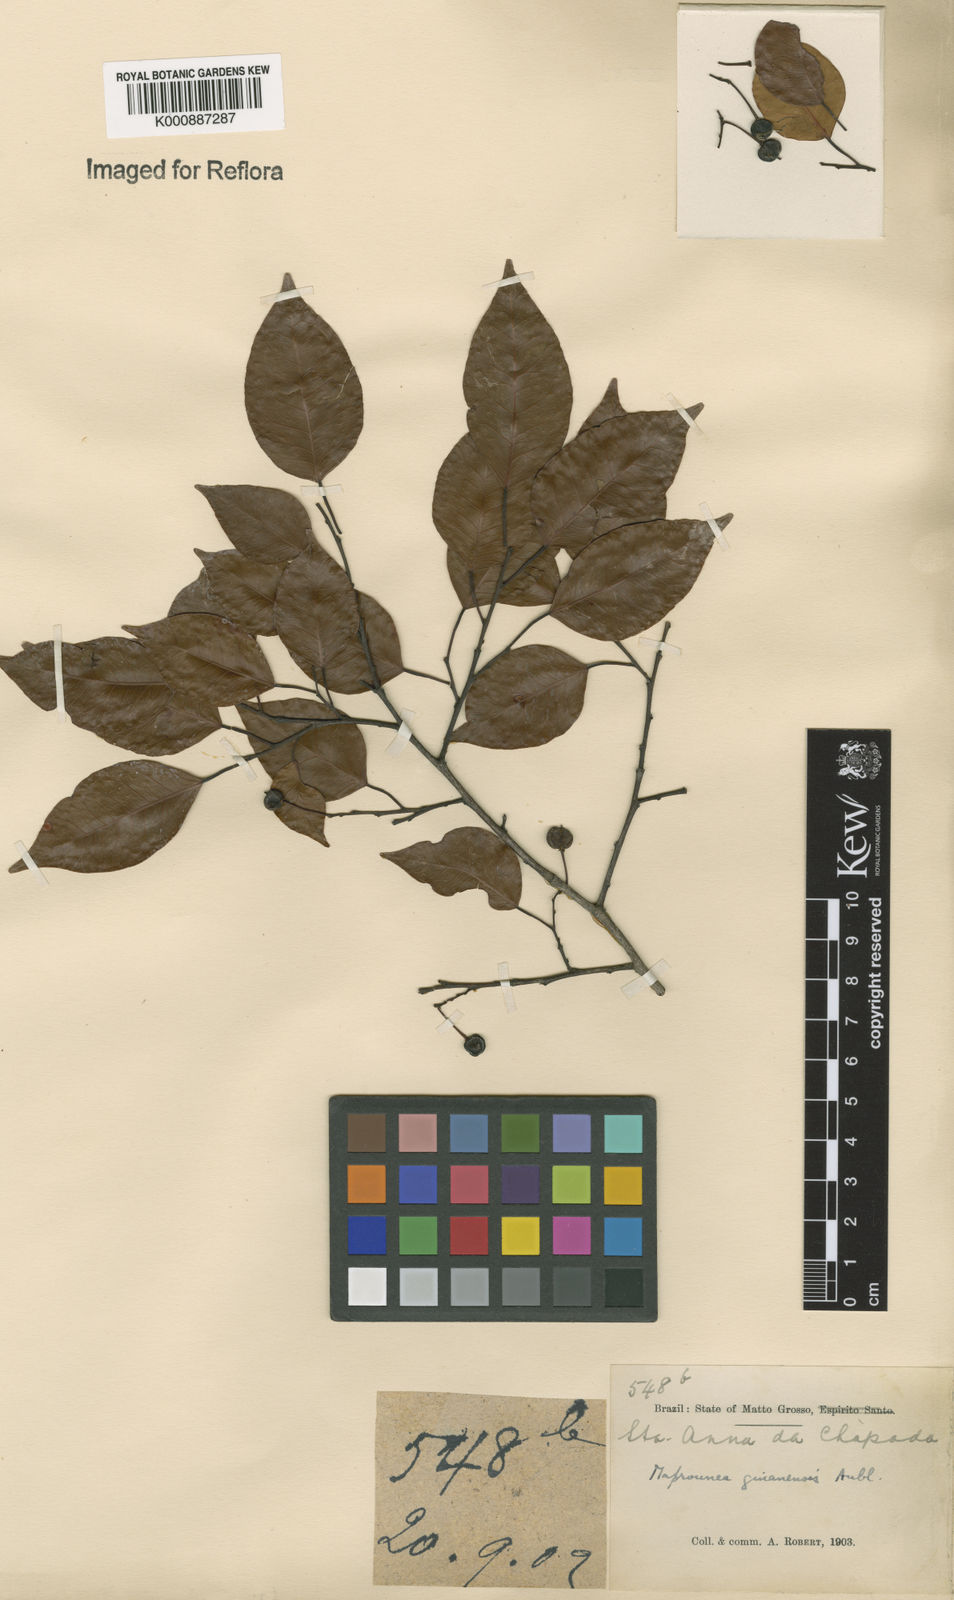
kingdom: Plantae
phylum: Tracheophyta
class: Magnoliopsida
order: Malpighiales
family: Euphorbiaceae
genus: Maprounea
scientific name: Maprounea guianensis
